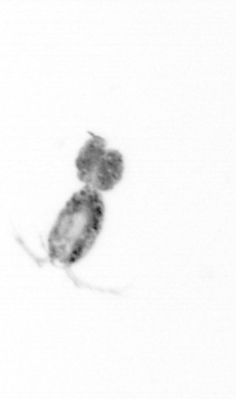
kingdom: Animalia
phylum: Arthropoda
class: Copepoda
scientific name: Copepoda
